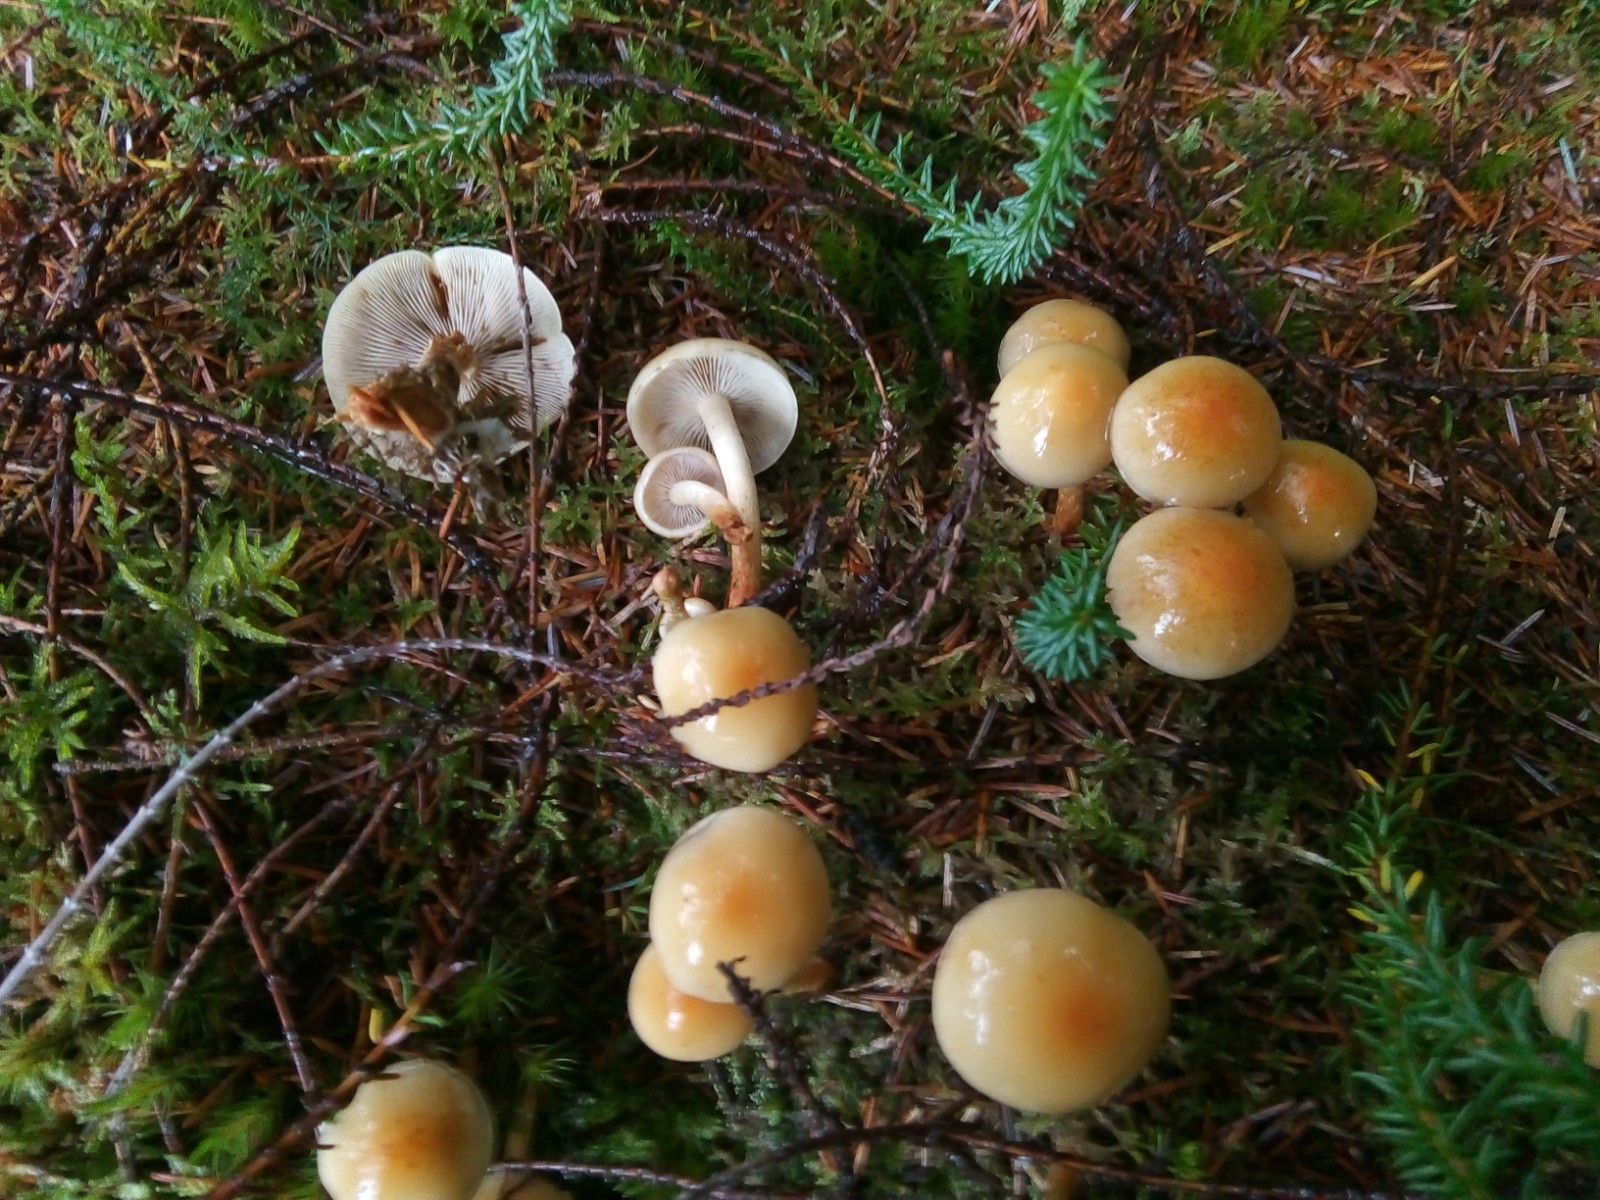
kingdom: Fungi
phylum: Basidiomycota
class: Agaricomycetes
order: Agaricales
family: Strophariaceae
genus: Hypholoma
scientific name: Hypholoma capnoides
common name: gran-svovlhat
